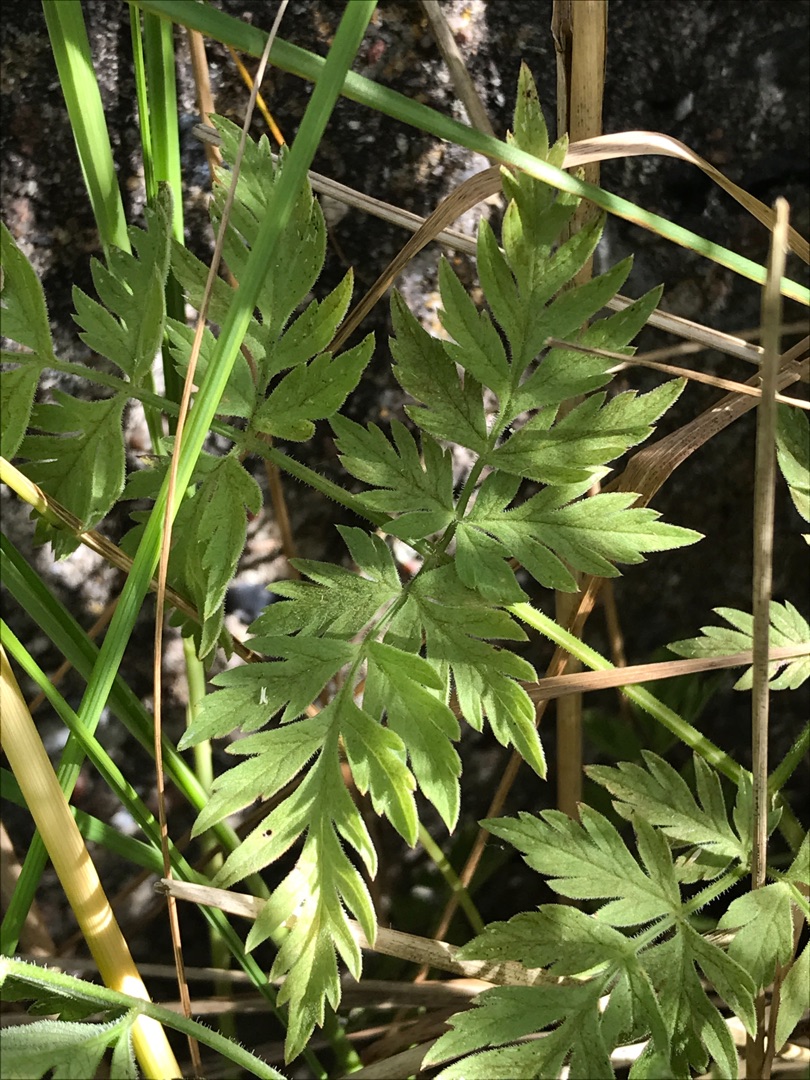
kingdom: Plantae
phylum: Tracheophyta
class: Magnoliopsida
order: Apiales
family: Apiaceae
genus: Anthriscus
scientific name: Anthriscus sylvestris
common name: Vild kørvel
